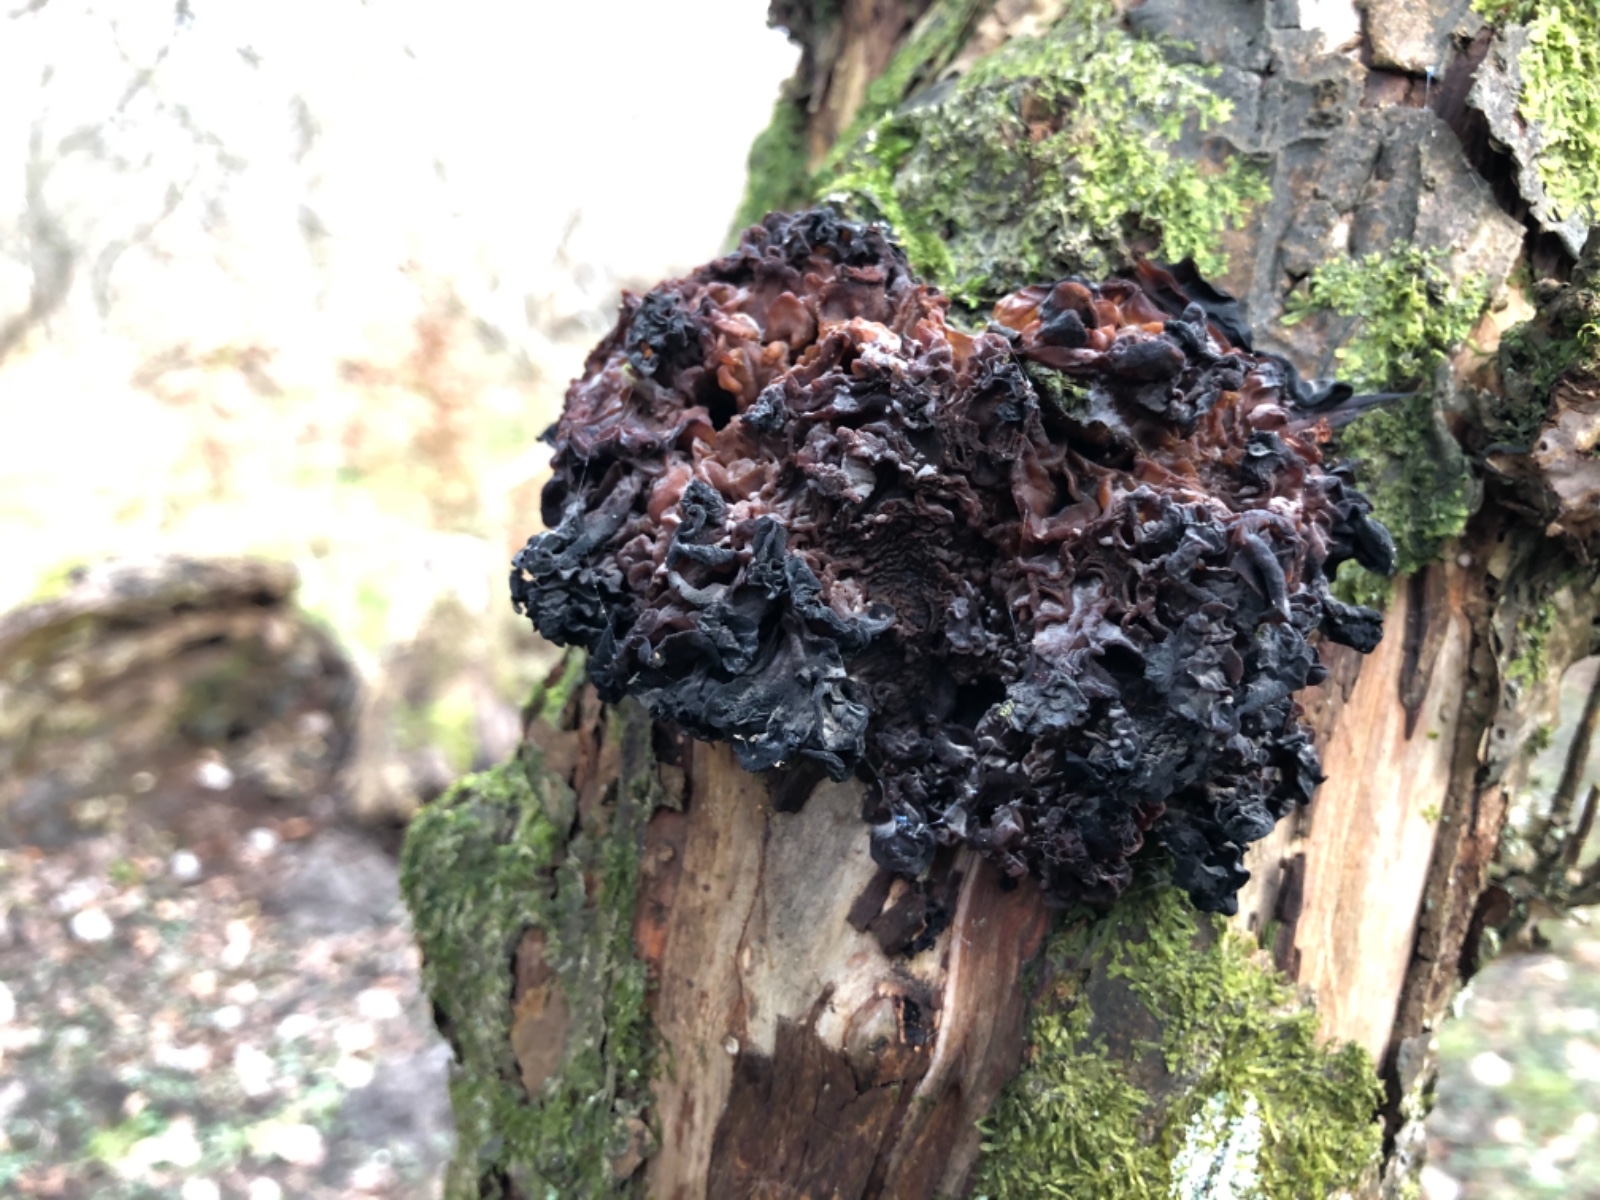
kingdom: Fungi
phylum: Basidiomycota
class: Tremellomycetes
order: Tremellales
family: Tremellaceae
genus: Phaeotremella
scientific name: Phaeotremella frondosa
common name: kæmpe-bævresvamp
